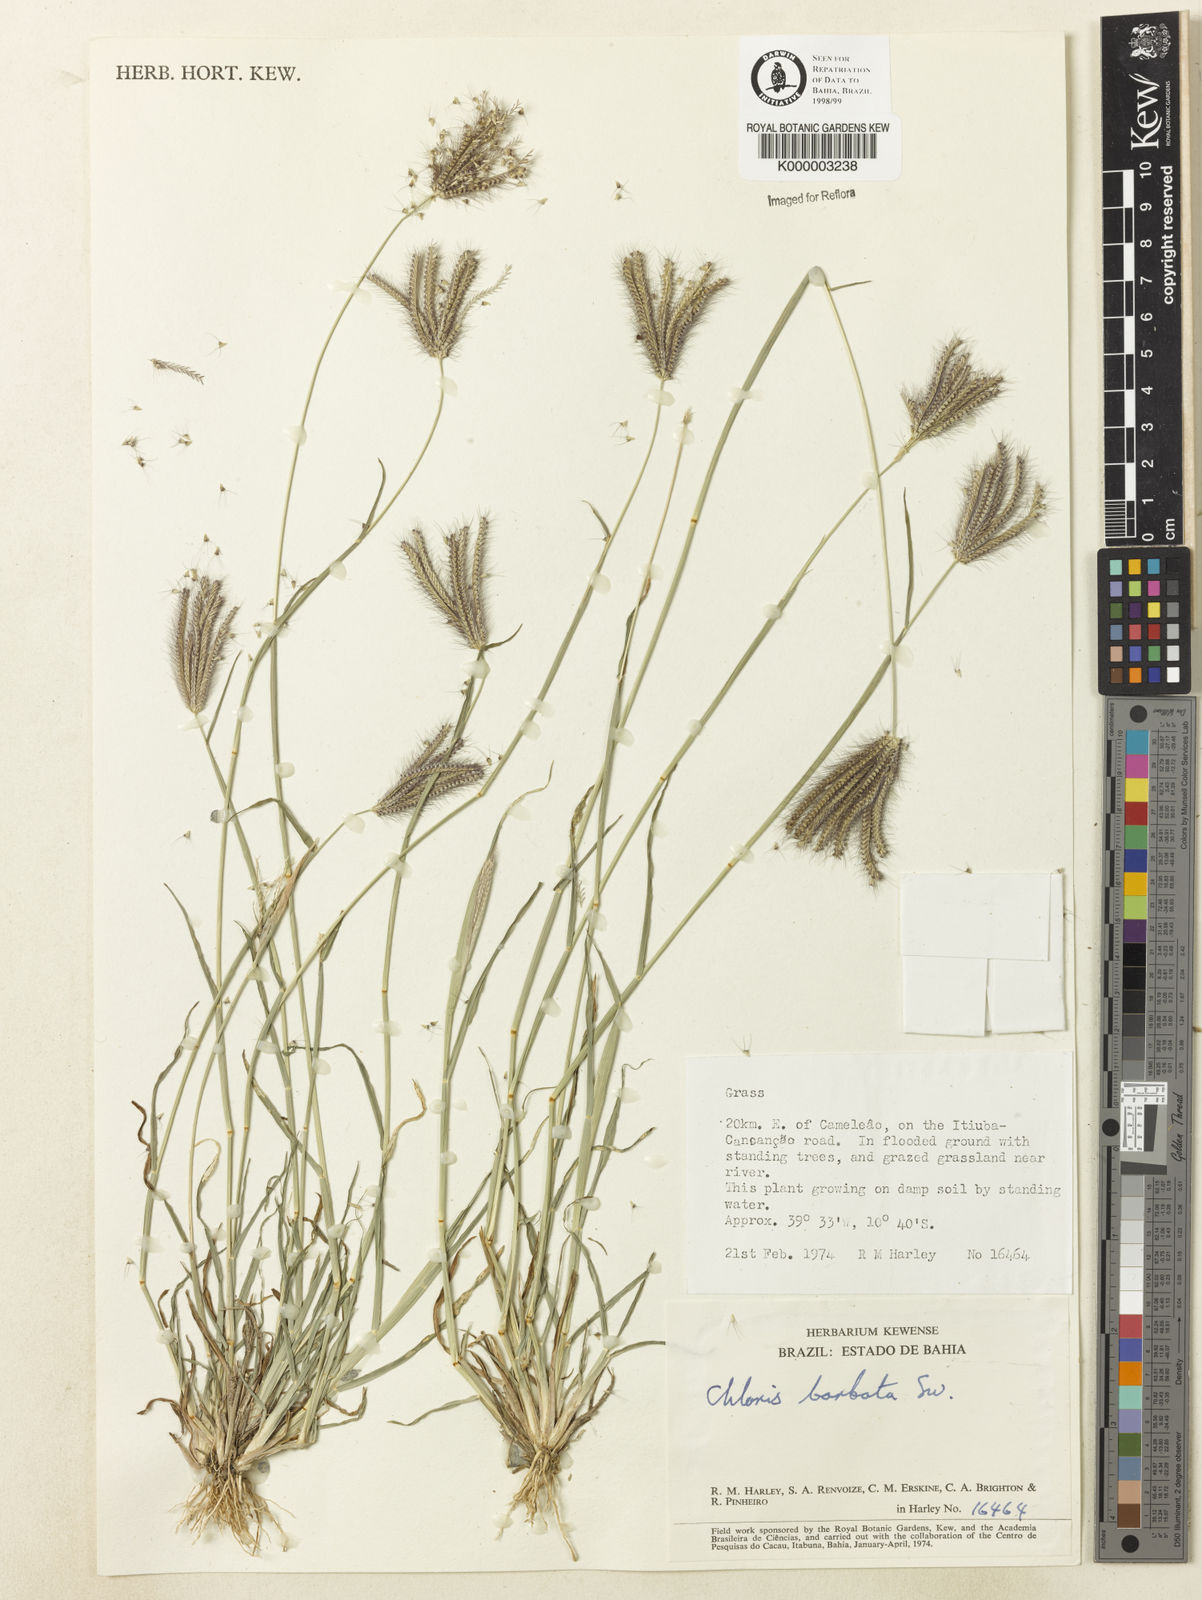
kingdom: Plantae
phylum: Tracheophyta
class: Liliopsida
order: Poales
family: Poaceae
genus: Chloris
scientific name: Chloris
